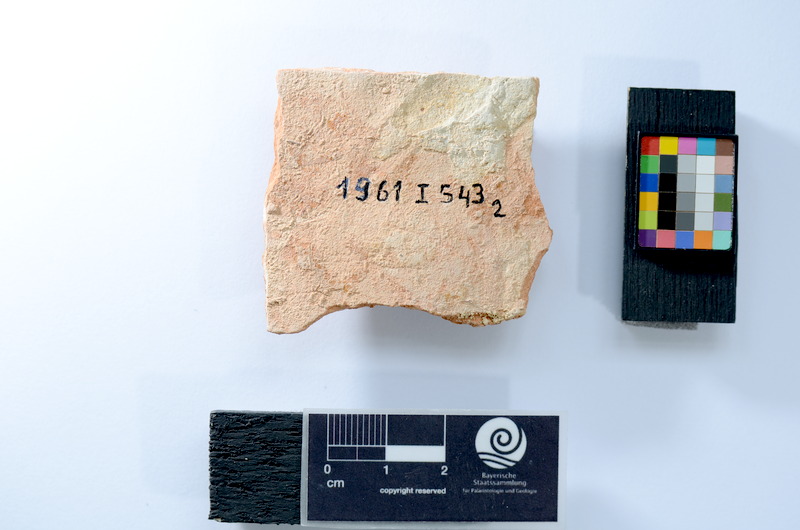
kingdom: Animalia
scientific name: Animalia
